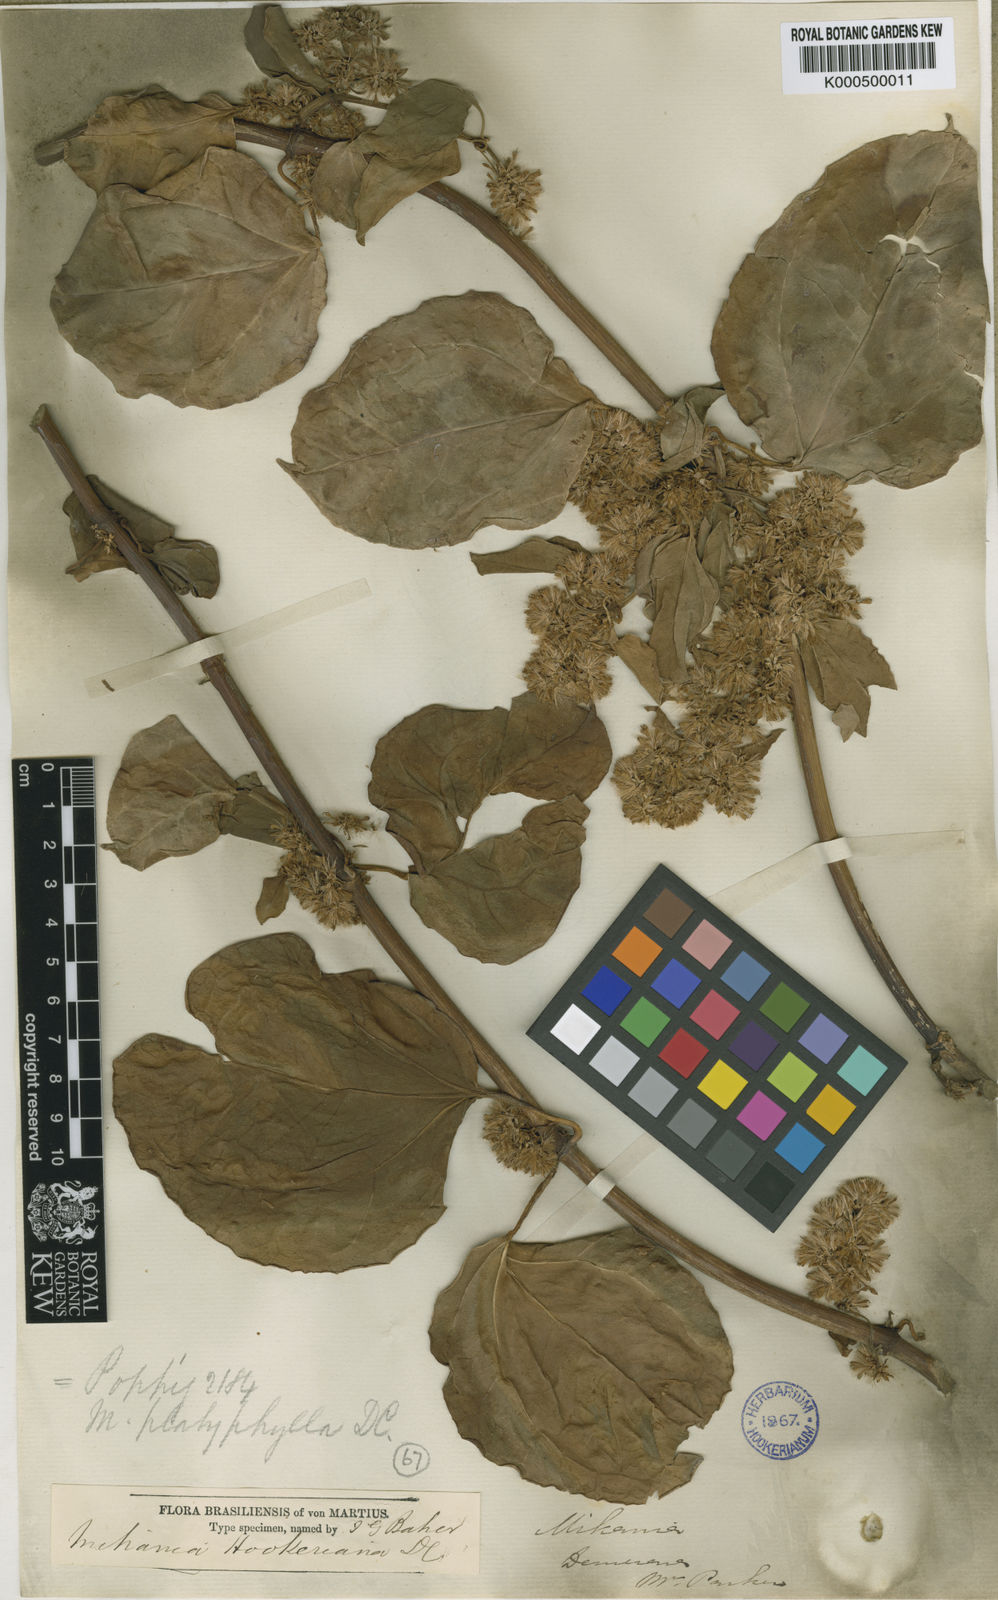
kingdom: Plantae
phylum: Tracheophyta
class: Magnoliopsida
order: Asterales
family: Asteraceae
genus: Mikania
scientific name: Mikania hookeriana
